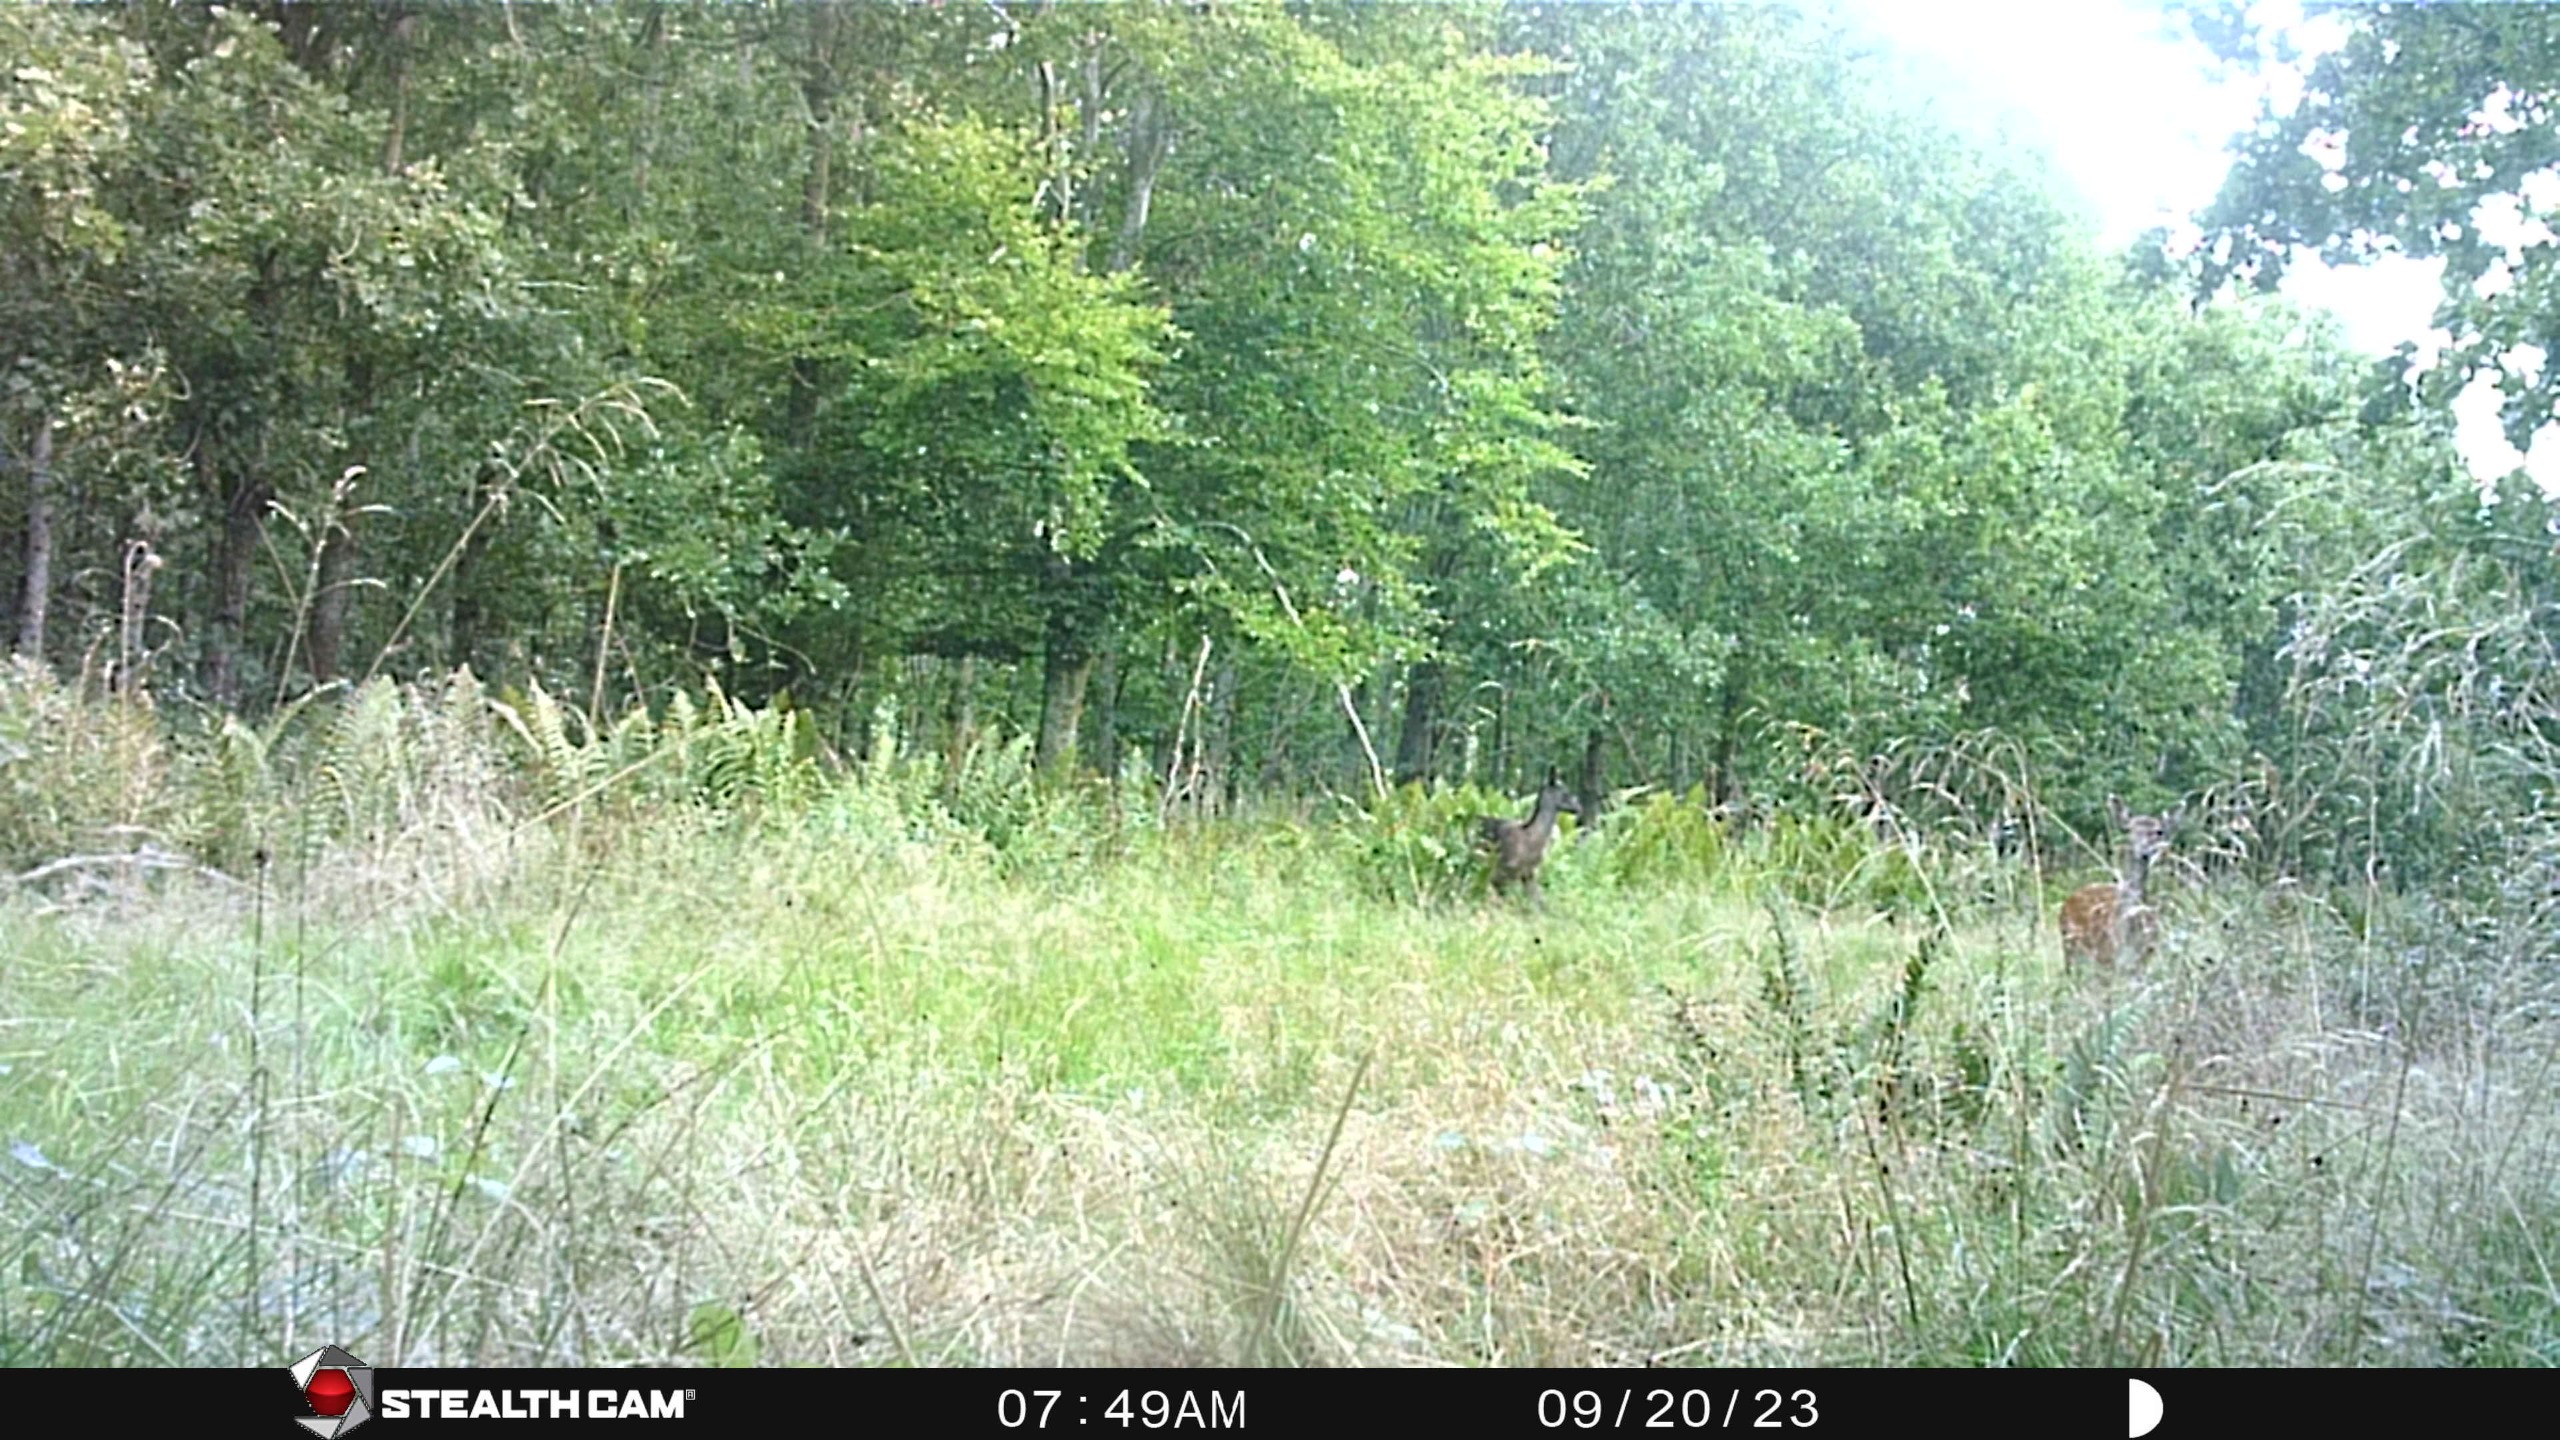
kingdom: Animalia
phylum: Chordata
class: Mammalia
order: Artiodactyla
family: Cervidae
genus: Dama
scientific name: Dama dama
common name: Dådyr
